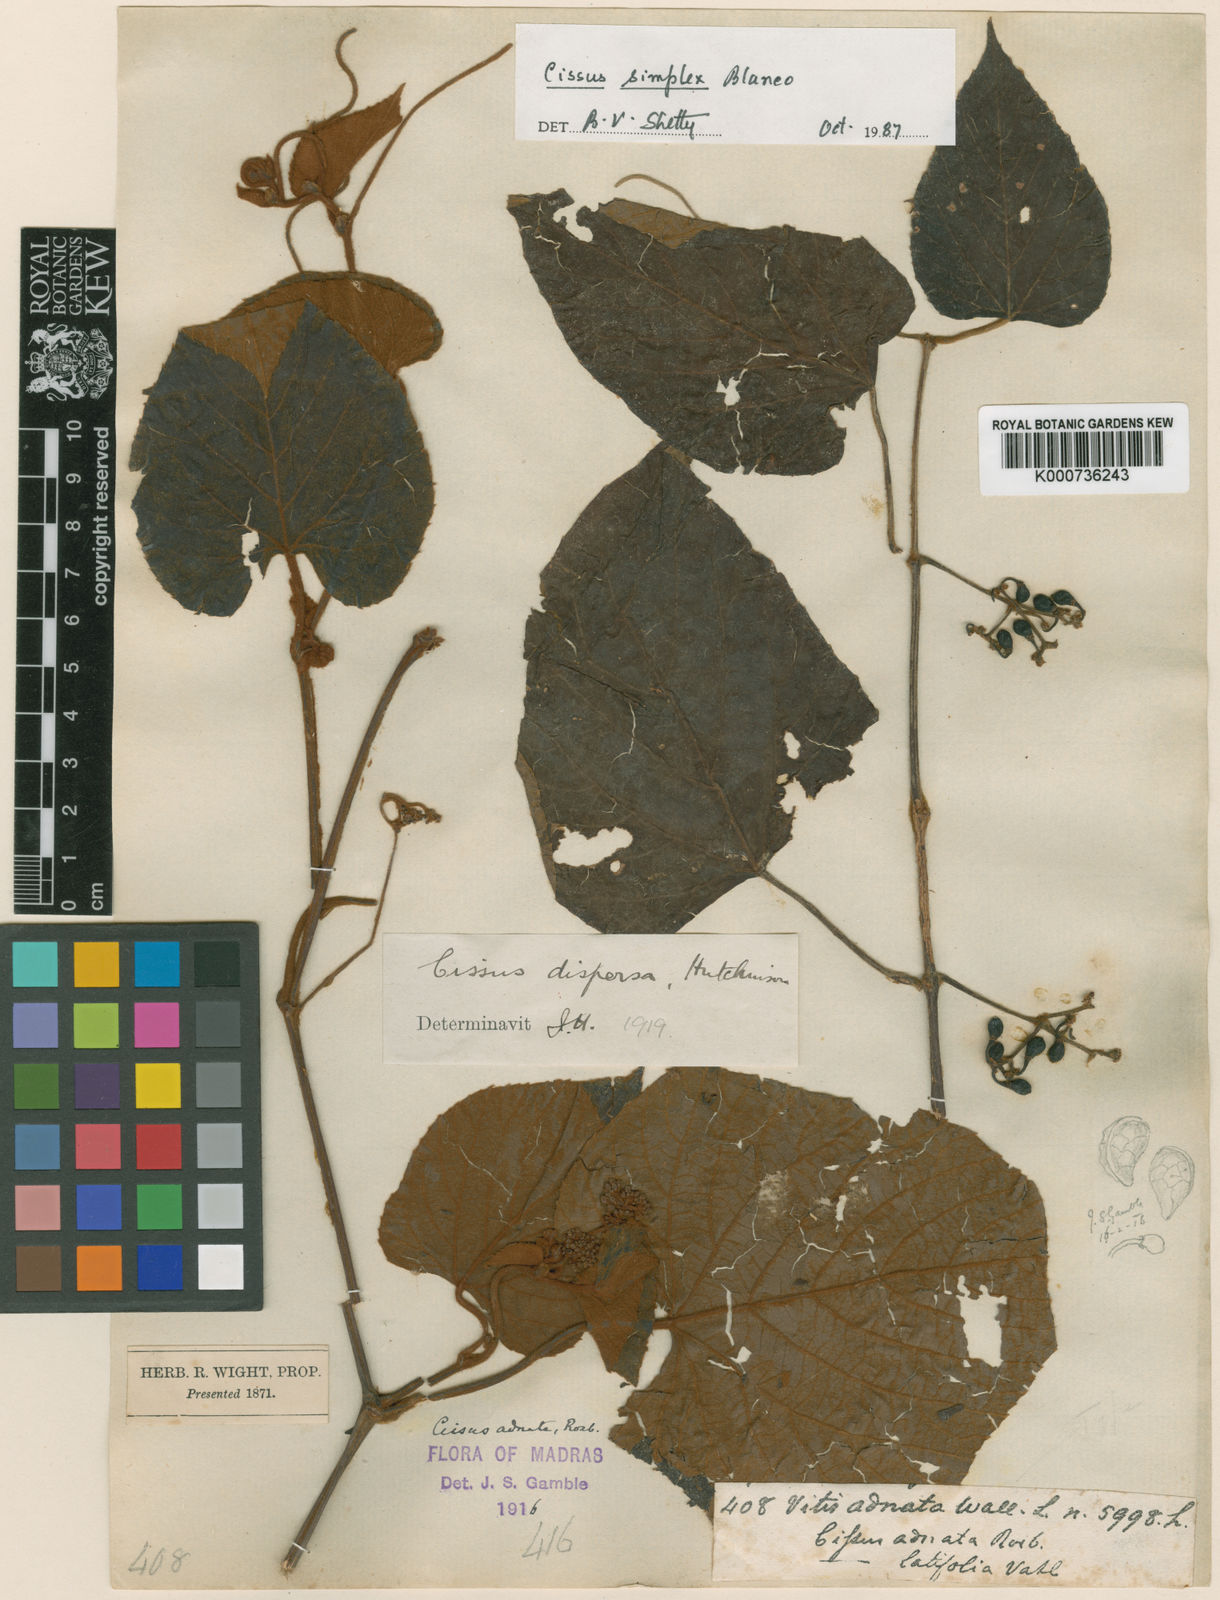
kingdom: Plantae
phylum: Tracheophyta
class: Magnoliopsida
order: Vitales
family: Vitaceae
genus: Cissus
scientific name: Cissus
